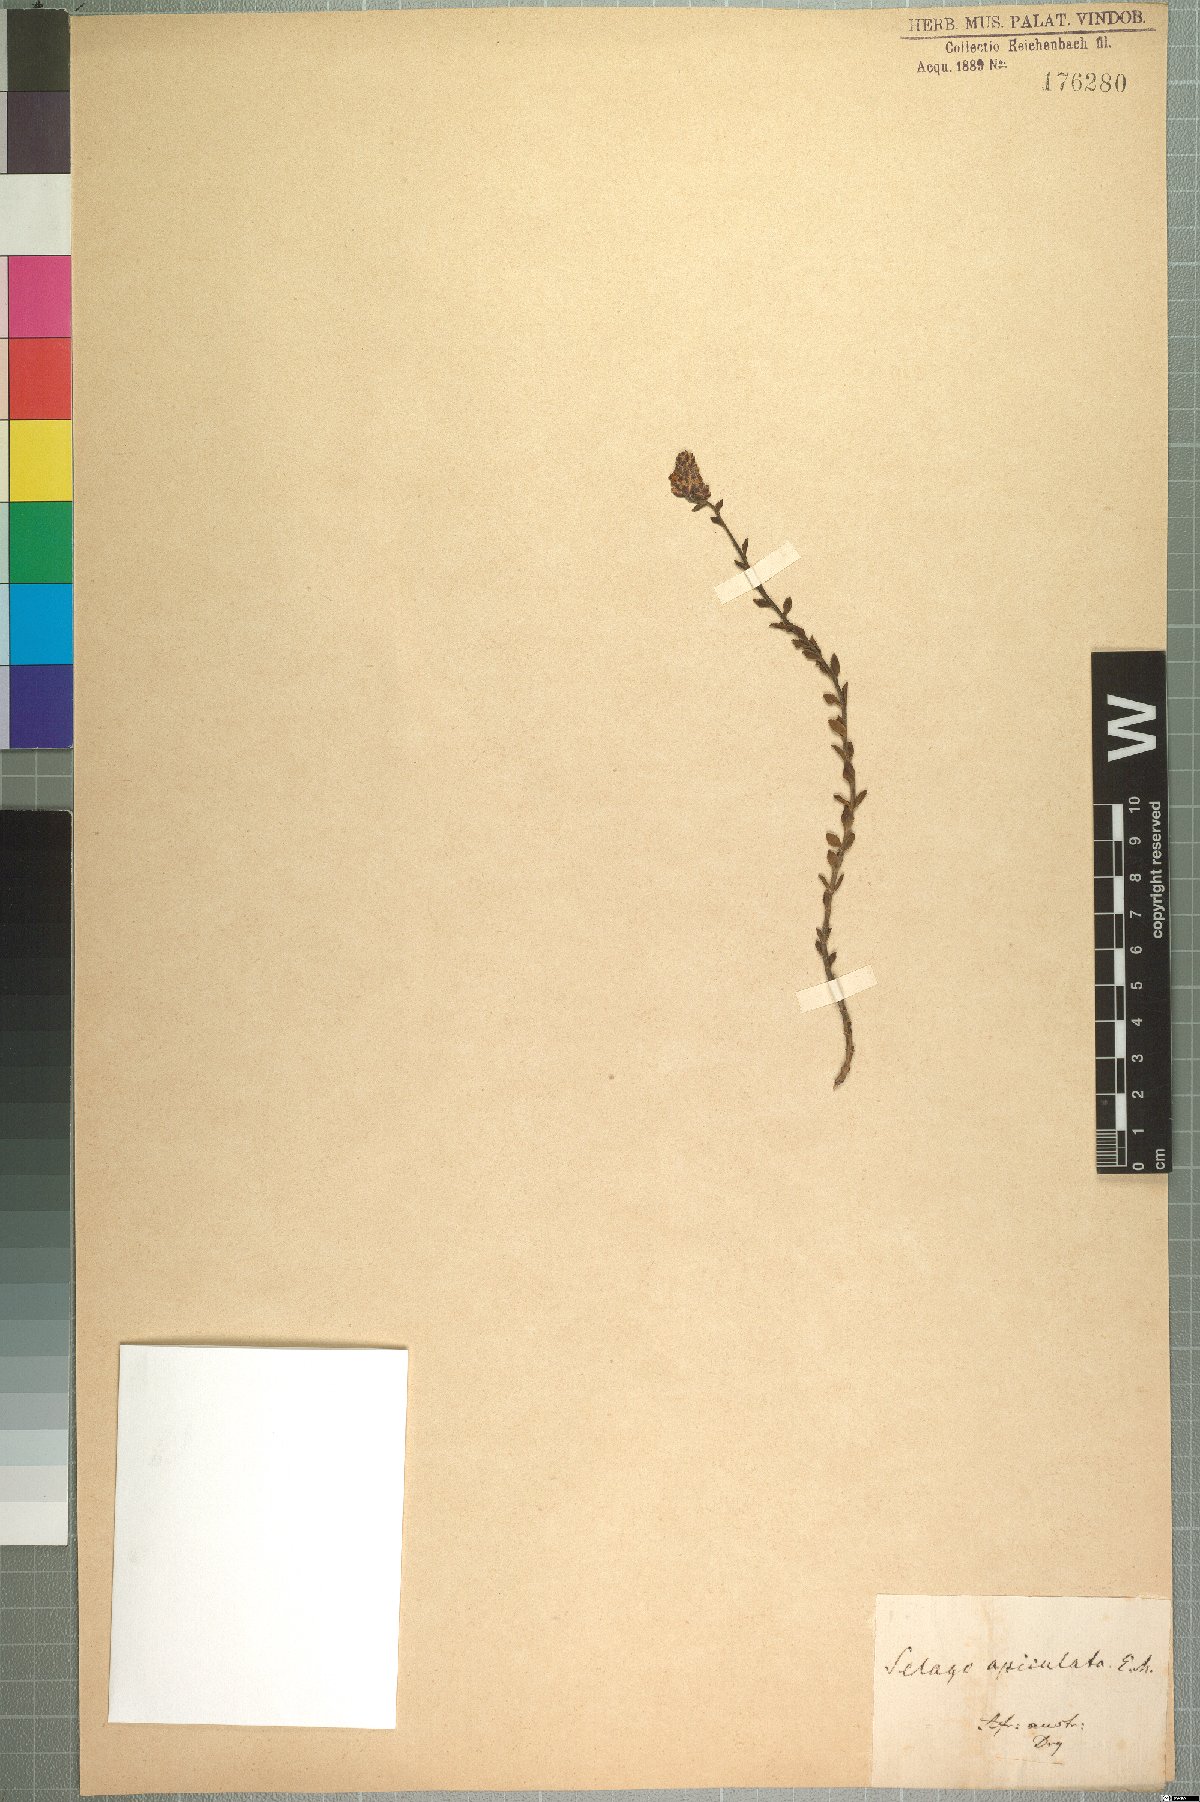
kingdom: Plantae
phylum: Tracheophyta
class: Magnoliopsida
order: Lamiales
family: Scrophulariaceae
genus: Glumicalyx
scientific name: Glumicalyx apiculatus
